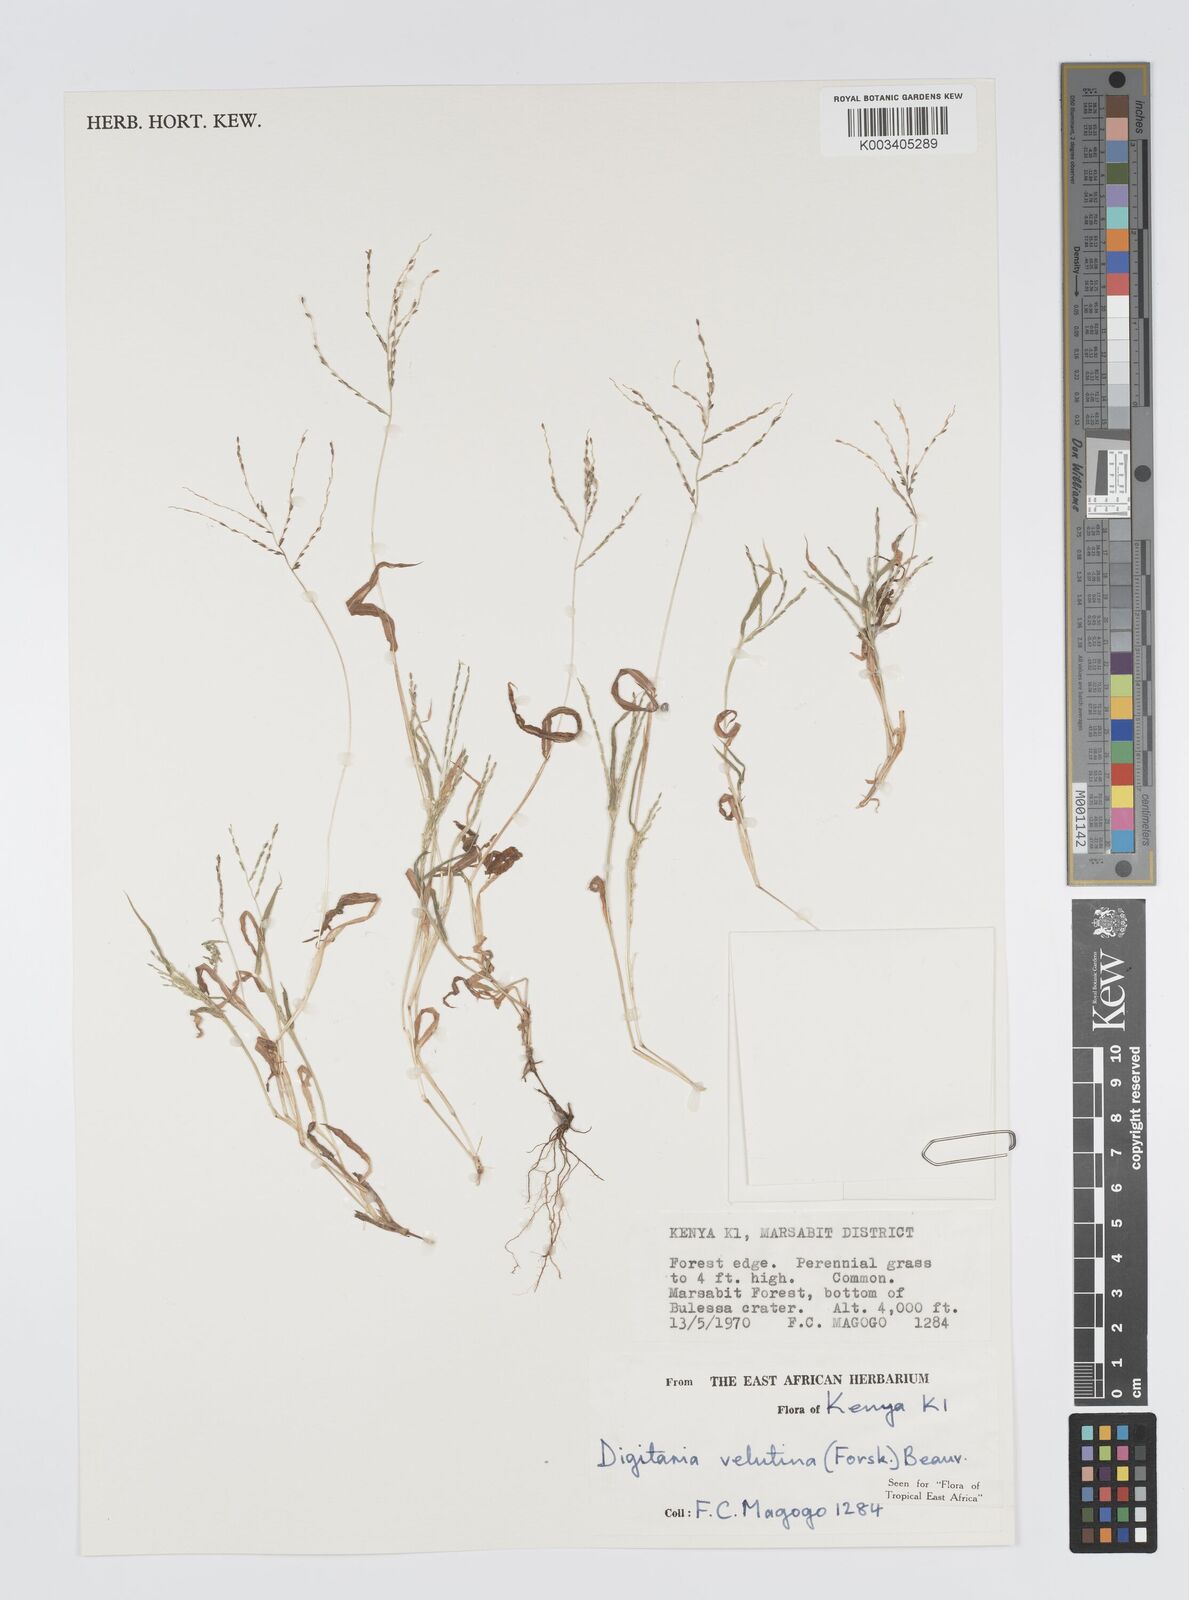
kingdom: Plantae
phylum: Tracheophyta
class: Liliopsida
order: Poales
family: Poaceae
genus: Digitaria
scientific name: Digitaria velutina
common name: Long-plume finger grass
